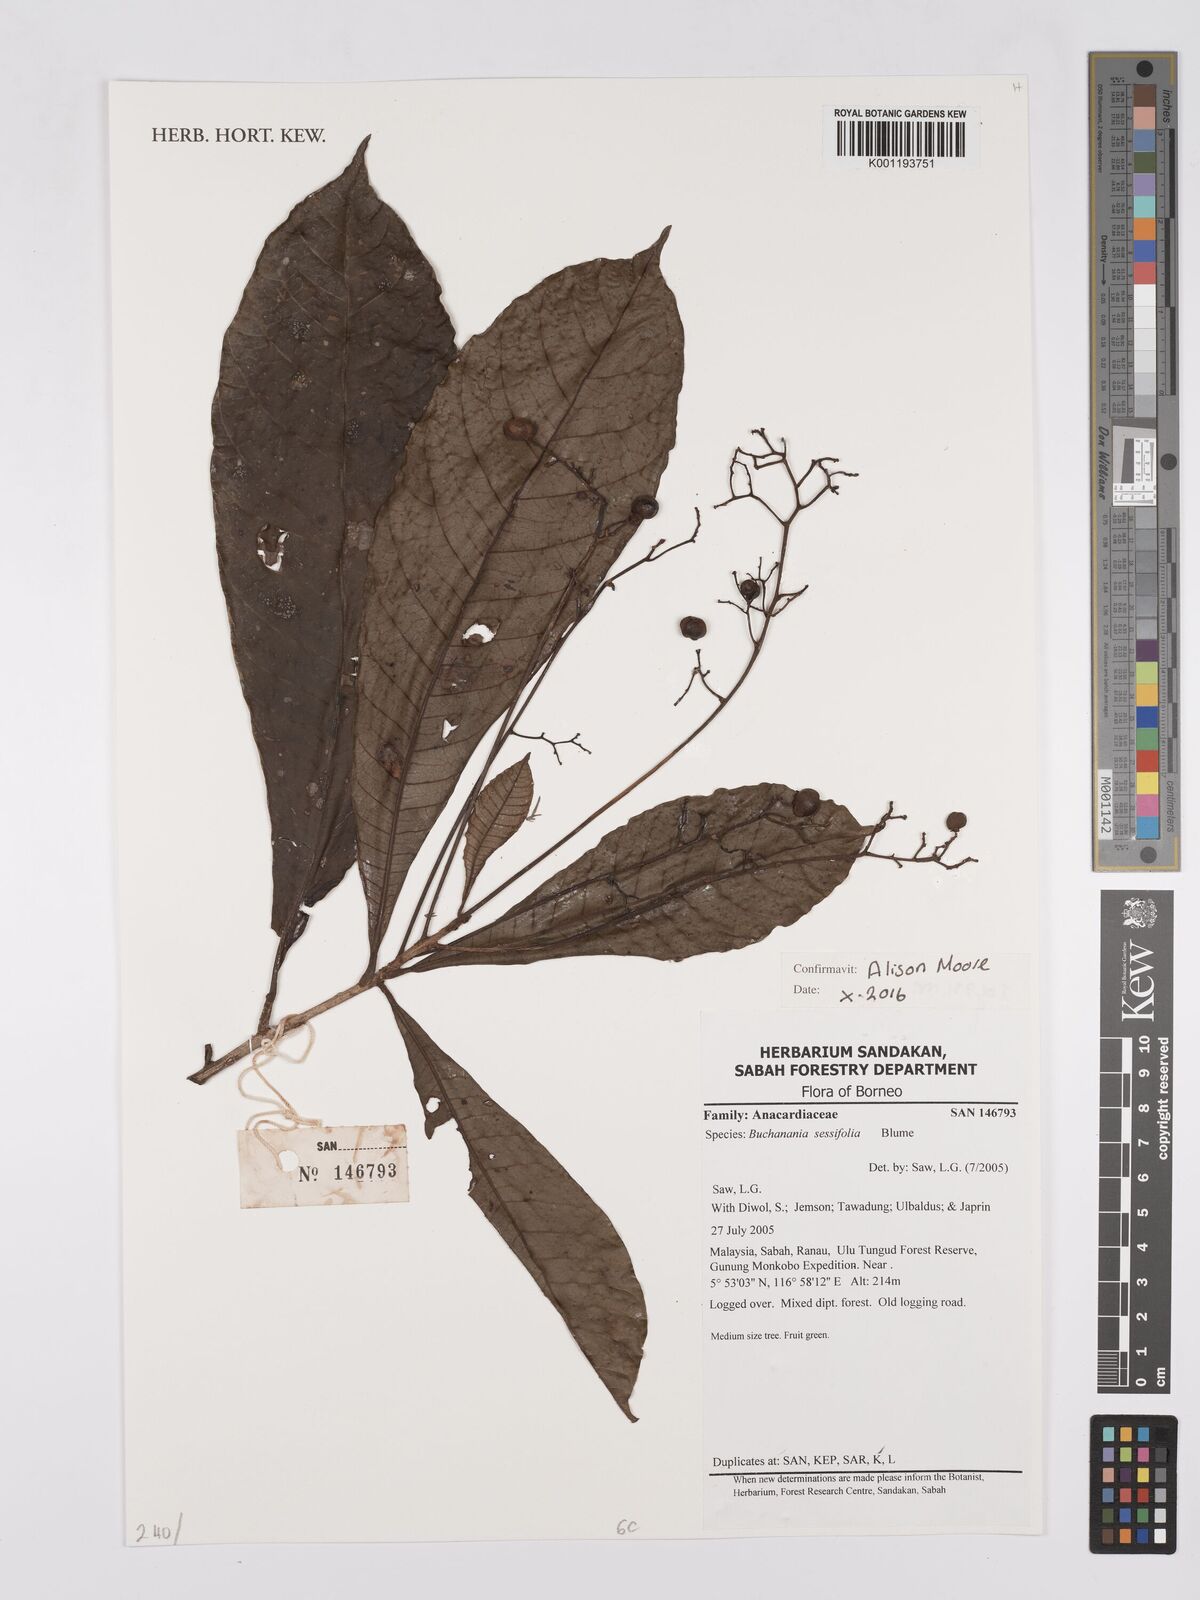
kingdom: Plantae
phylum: Tracheophyta
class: Magnoliopsida
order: Sapindales
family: Anacardiaceae
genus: Buchanania
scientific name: Buchanania sessifolia
